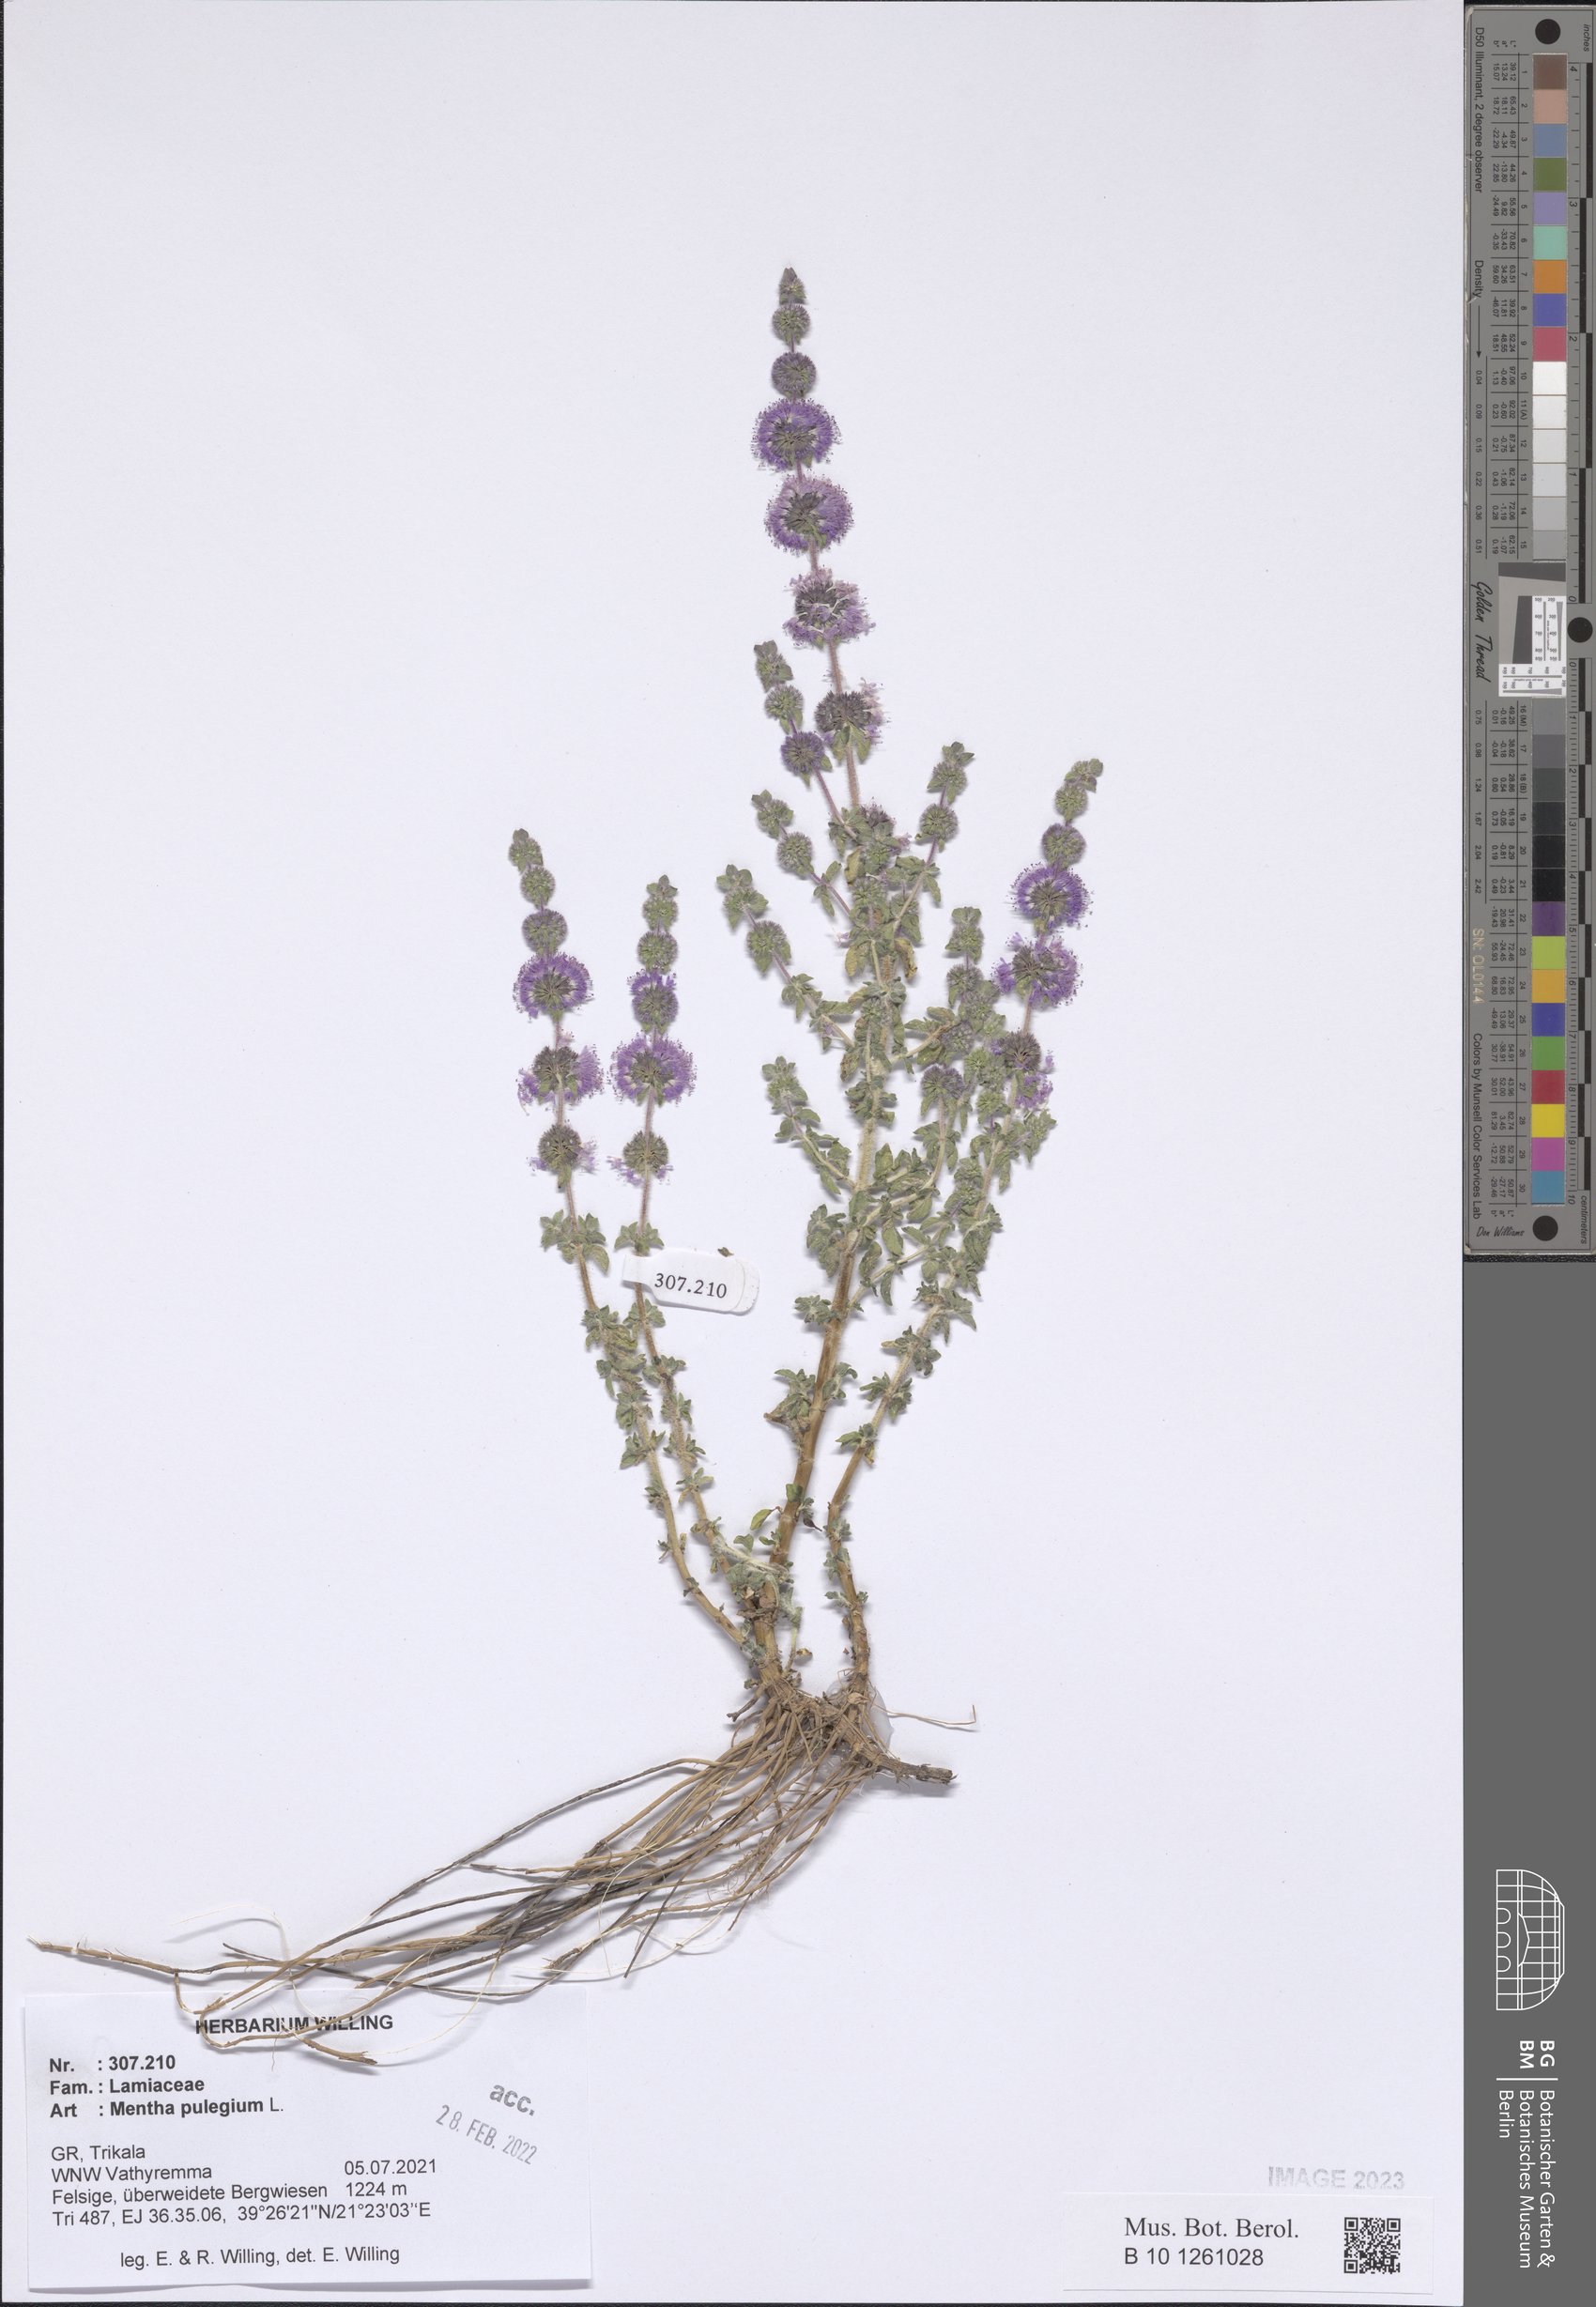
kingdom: Plantae
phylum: Tracheophyta
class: Magnoliopsida
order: Lamiales
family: Lamiaceae
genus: Mentha
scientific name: Mentha pulegium
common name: Pennyroyal
